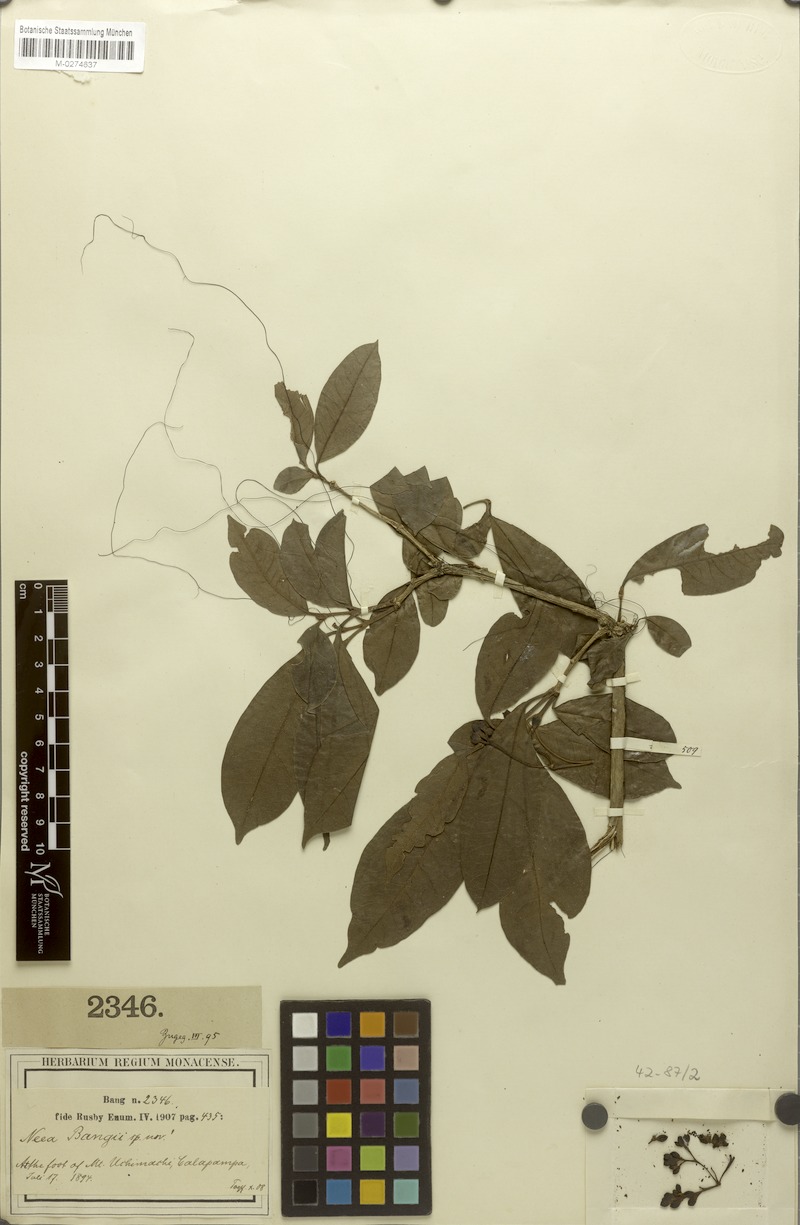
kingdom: Plantae
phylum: Tracheophyta
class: Magnoliopsida
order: Caryophyllales
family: Nyctaginaceae
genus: Neea
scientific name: Neea bangii
